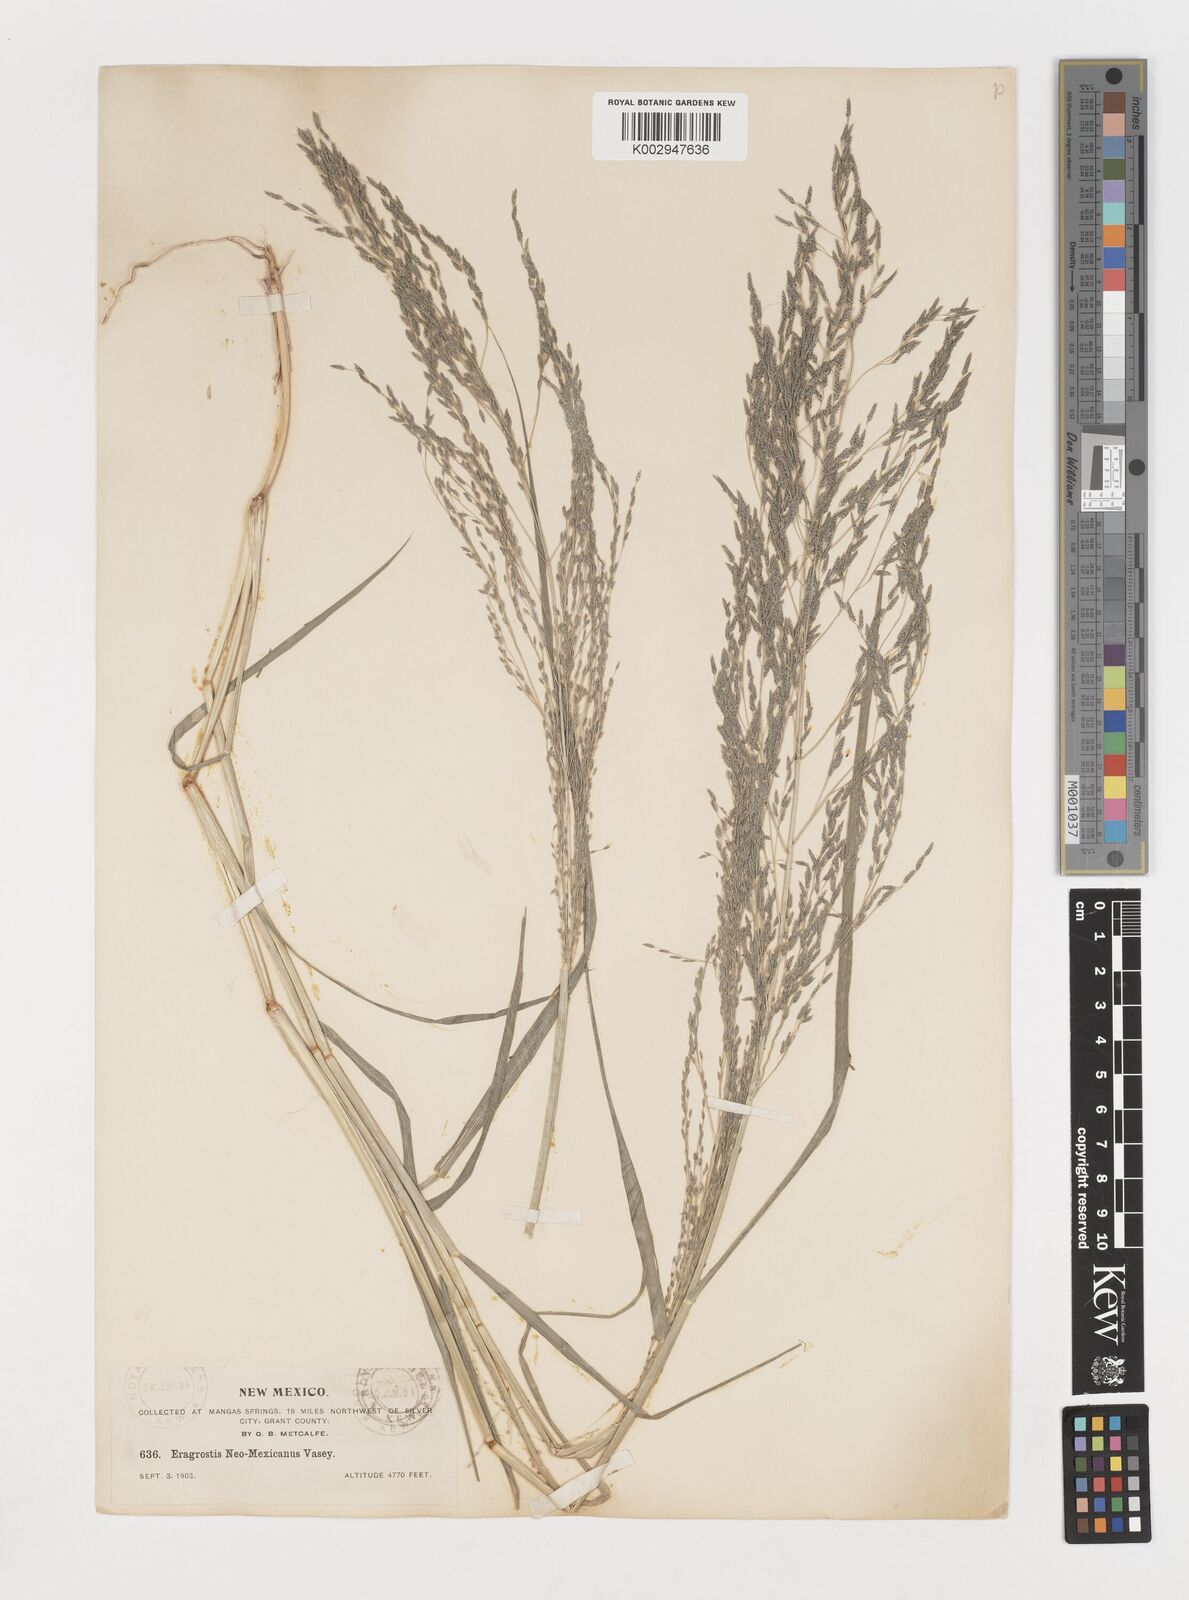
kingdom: Plantae
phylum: Tracheophyta
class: Liliopsida
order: Poales
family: Poaceae
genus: Eragrostis
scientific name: Eragrostis mexicana
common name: Mexican love grass
